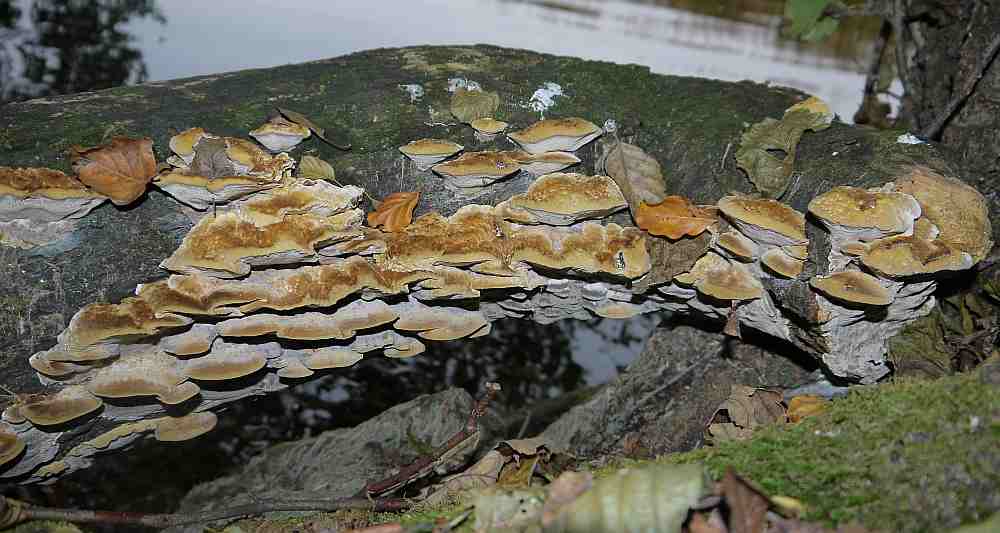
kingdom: Fungi
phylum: Basidiomycota
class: Agaricomycetes
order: Hymenochaetales
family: Hymenochaetaceae
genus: Xanthoporia
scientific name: Xanthoporia radiata
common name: elle-spejlporesvamp
